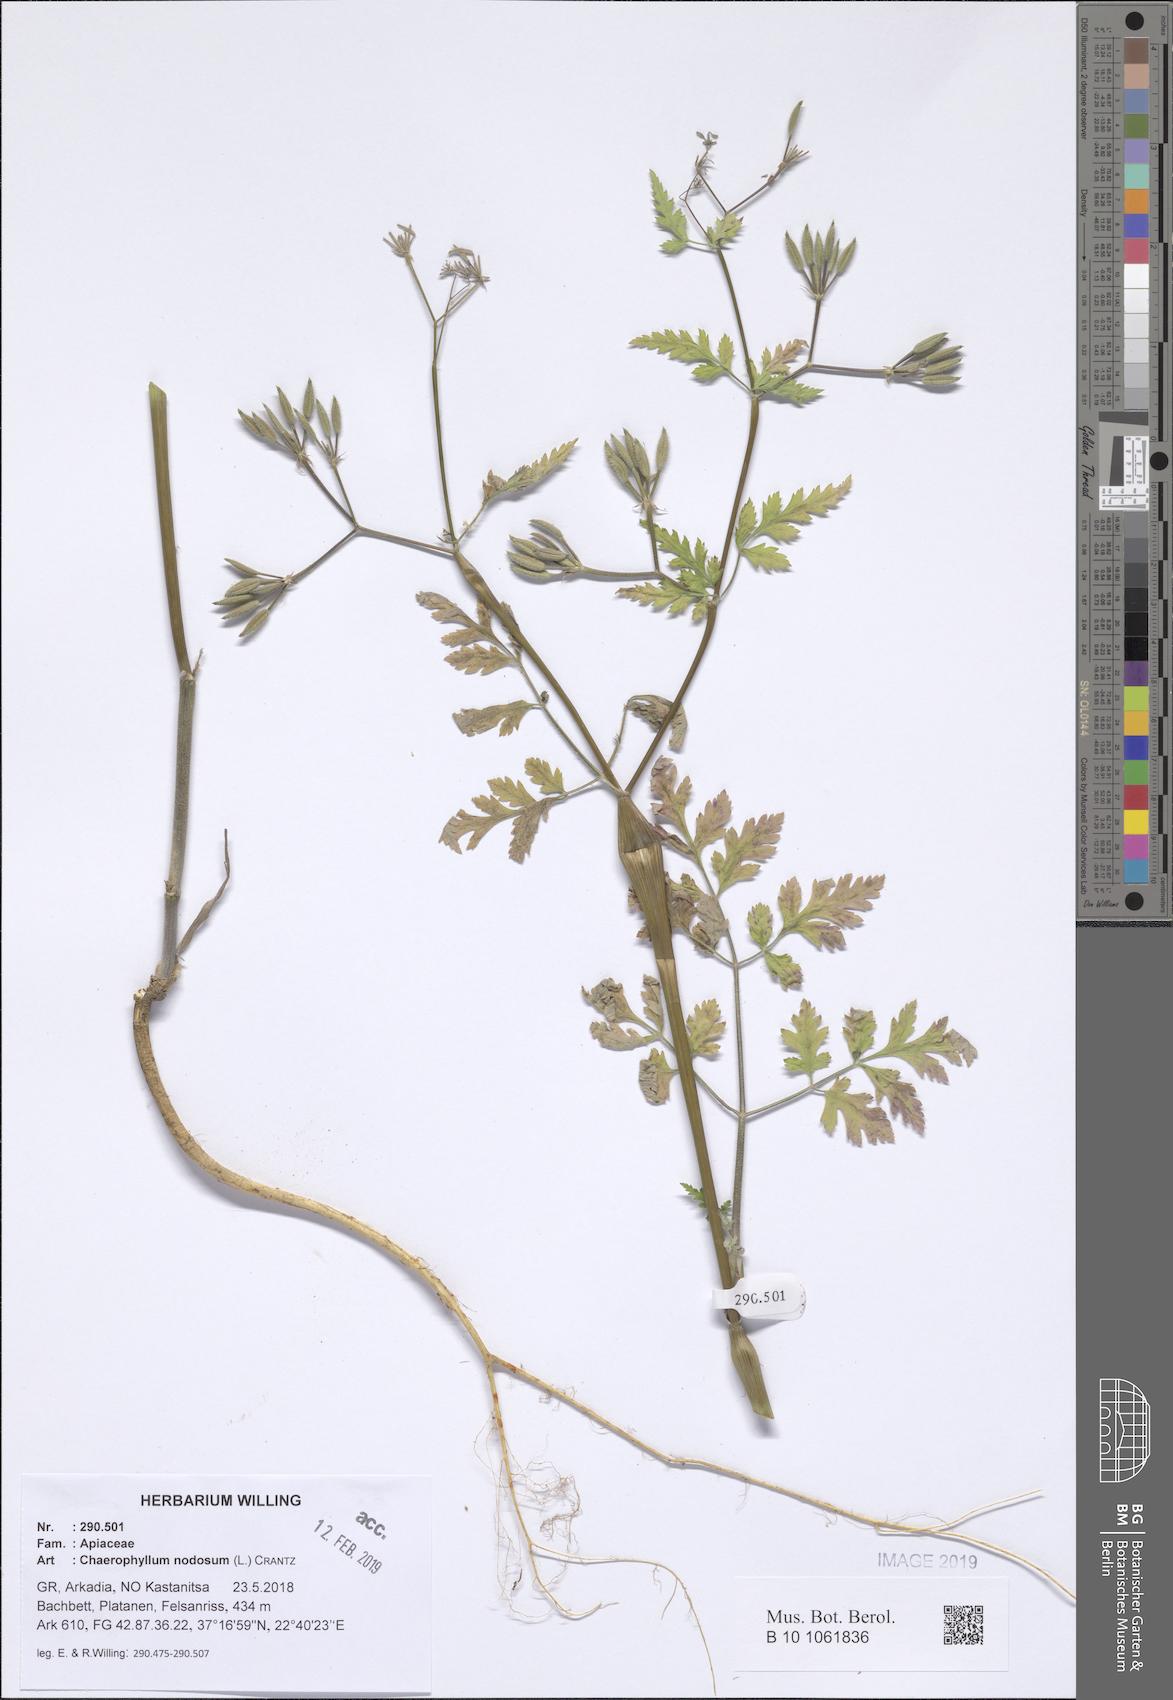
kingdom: Plantae
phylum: Tracheophyta
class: Magnoliopsida
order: Apiales
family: Apiaceae
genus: Chaerophyllum
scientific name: Chaerophyllum nodosum
